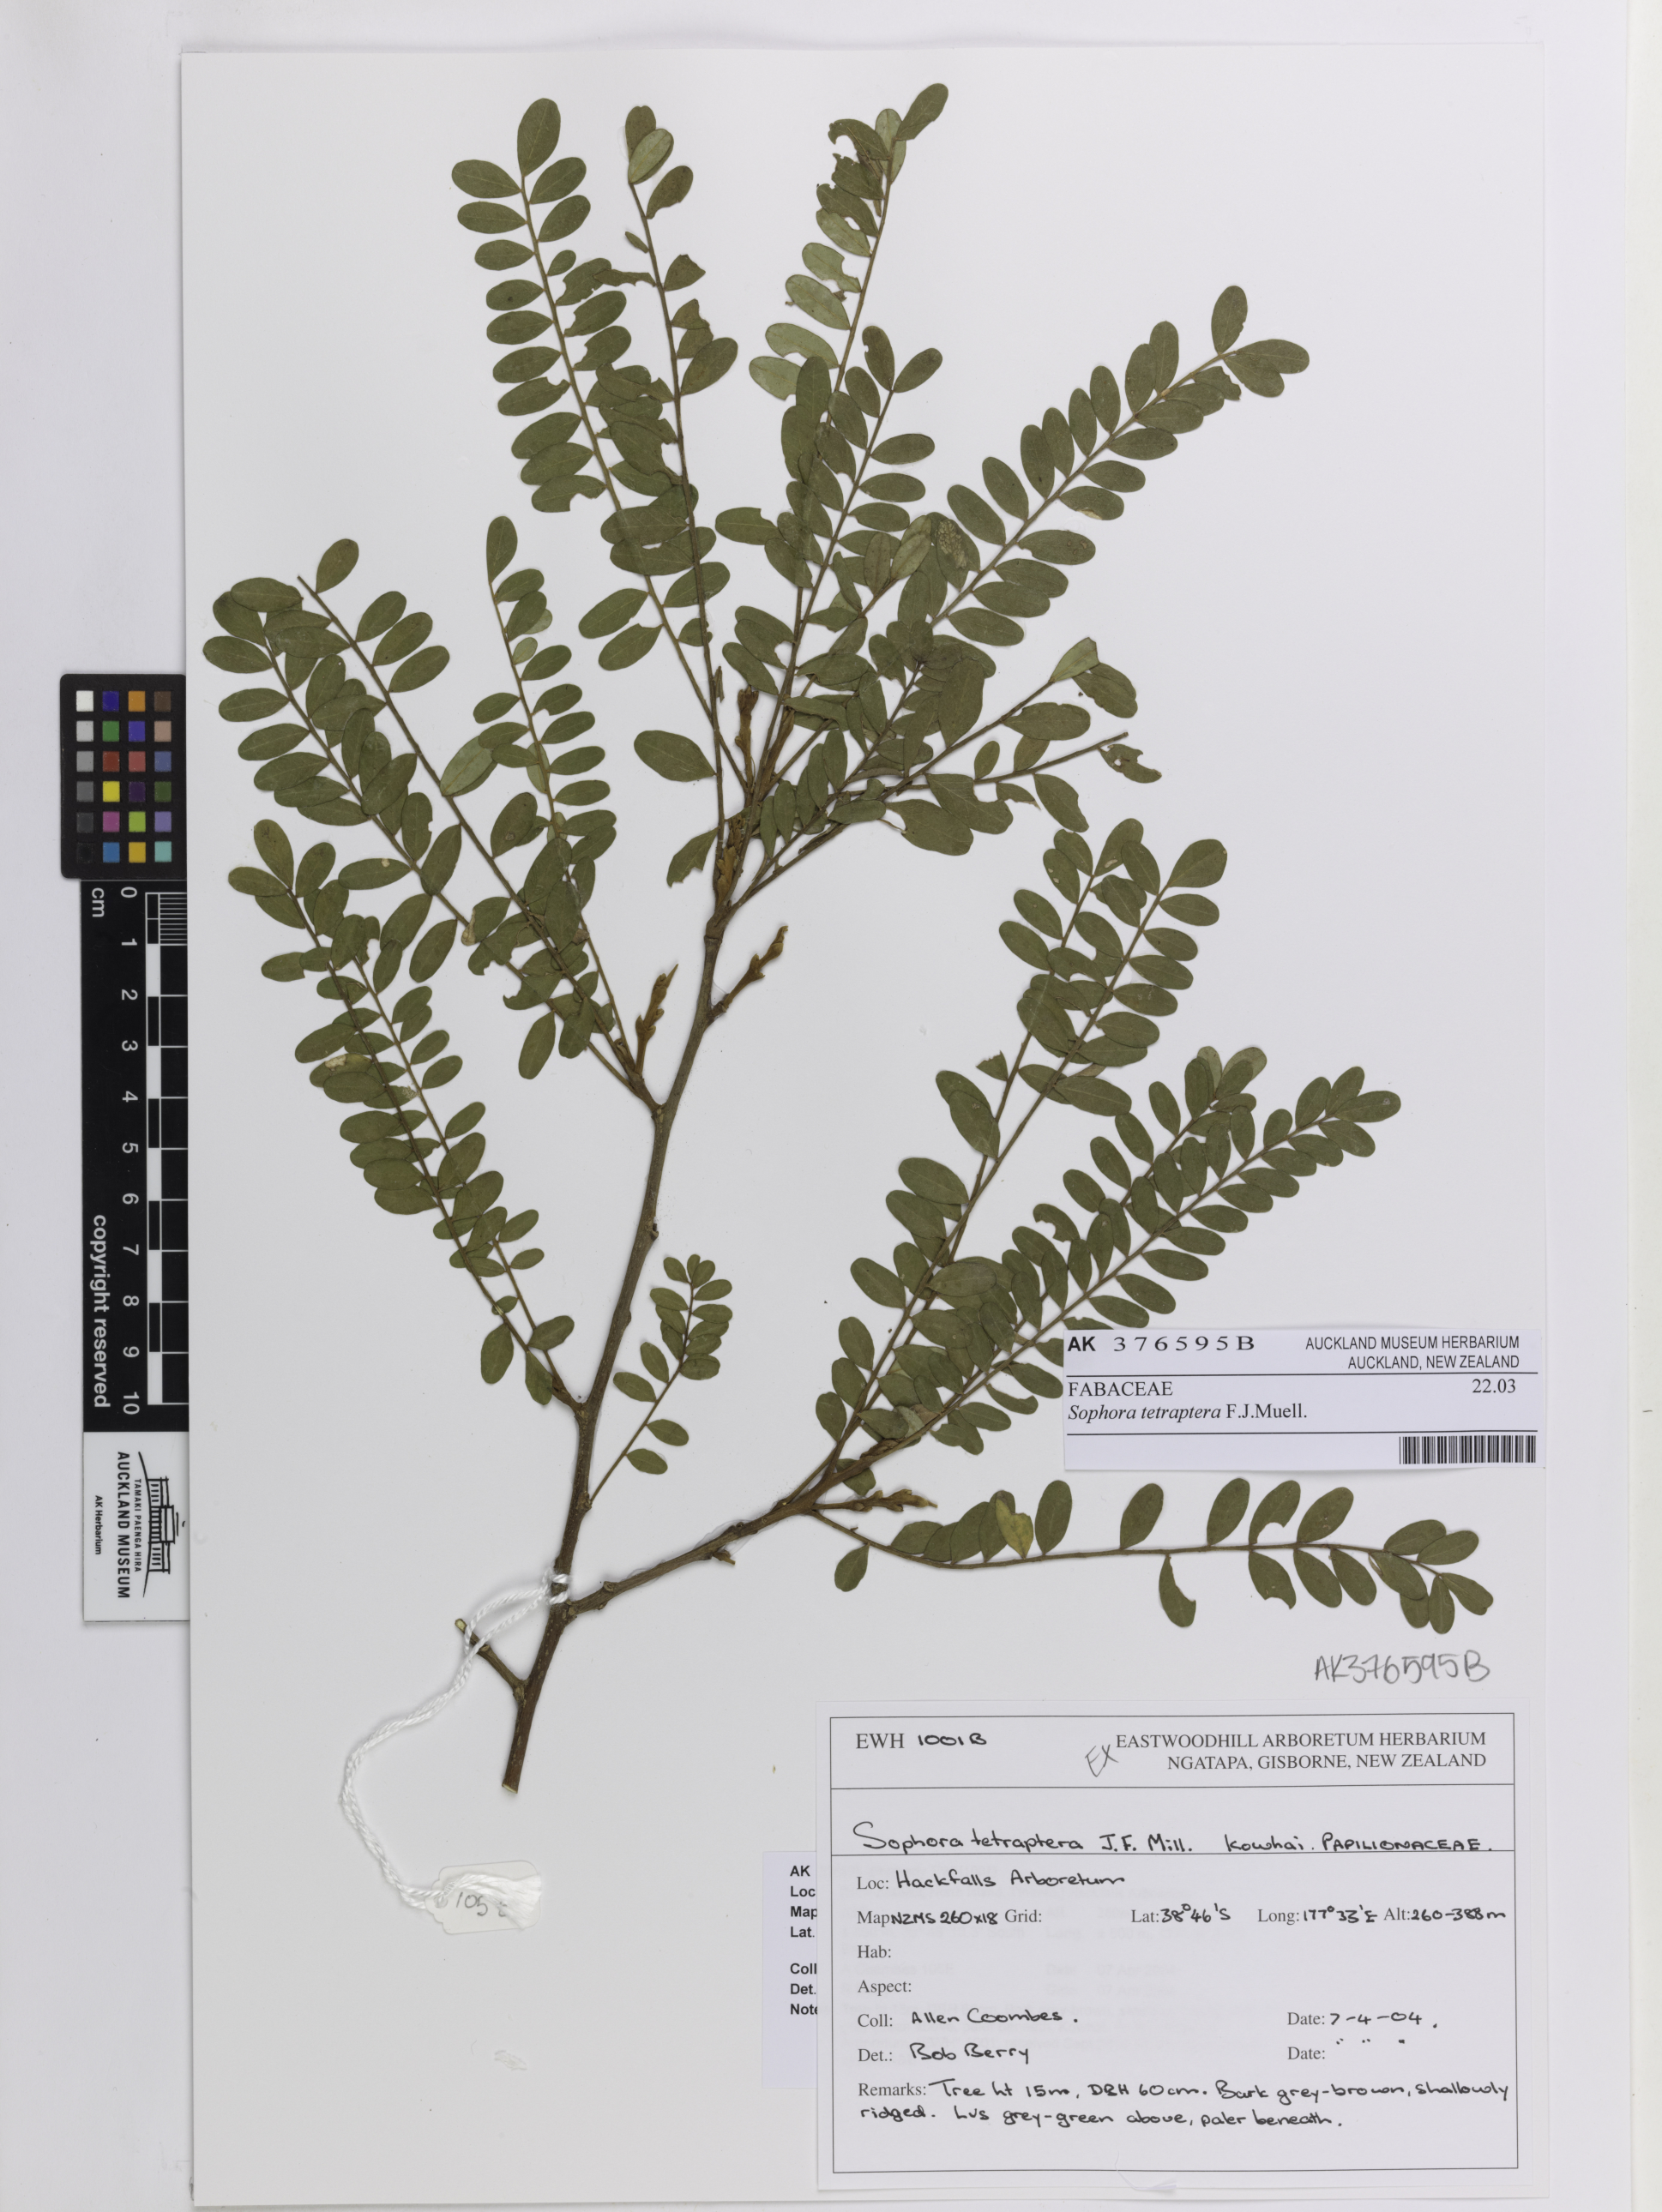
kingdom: Plantae
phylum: Tracheophyta
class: Magnoliopsida
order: Fabales
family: Fabaceae
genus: Sophora
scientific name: Sophora tetraptera
